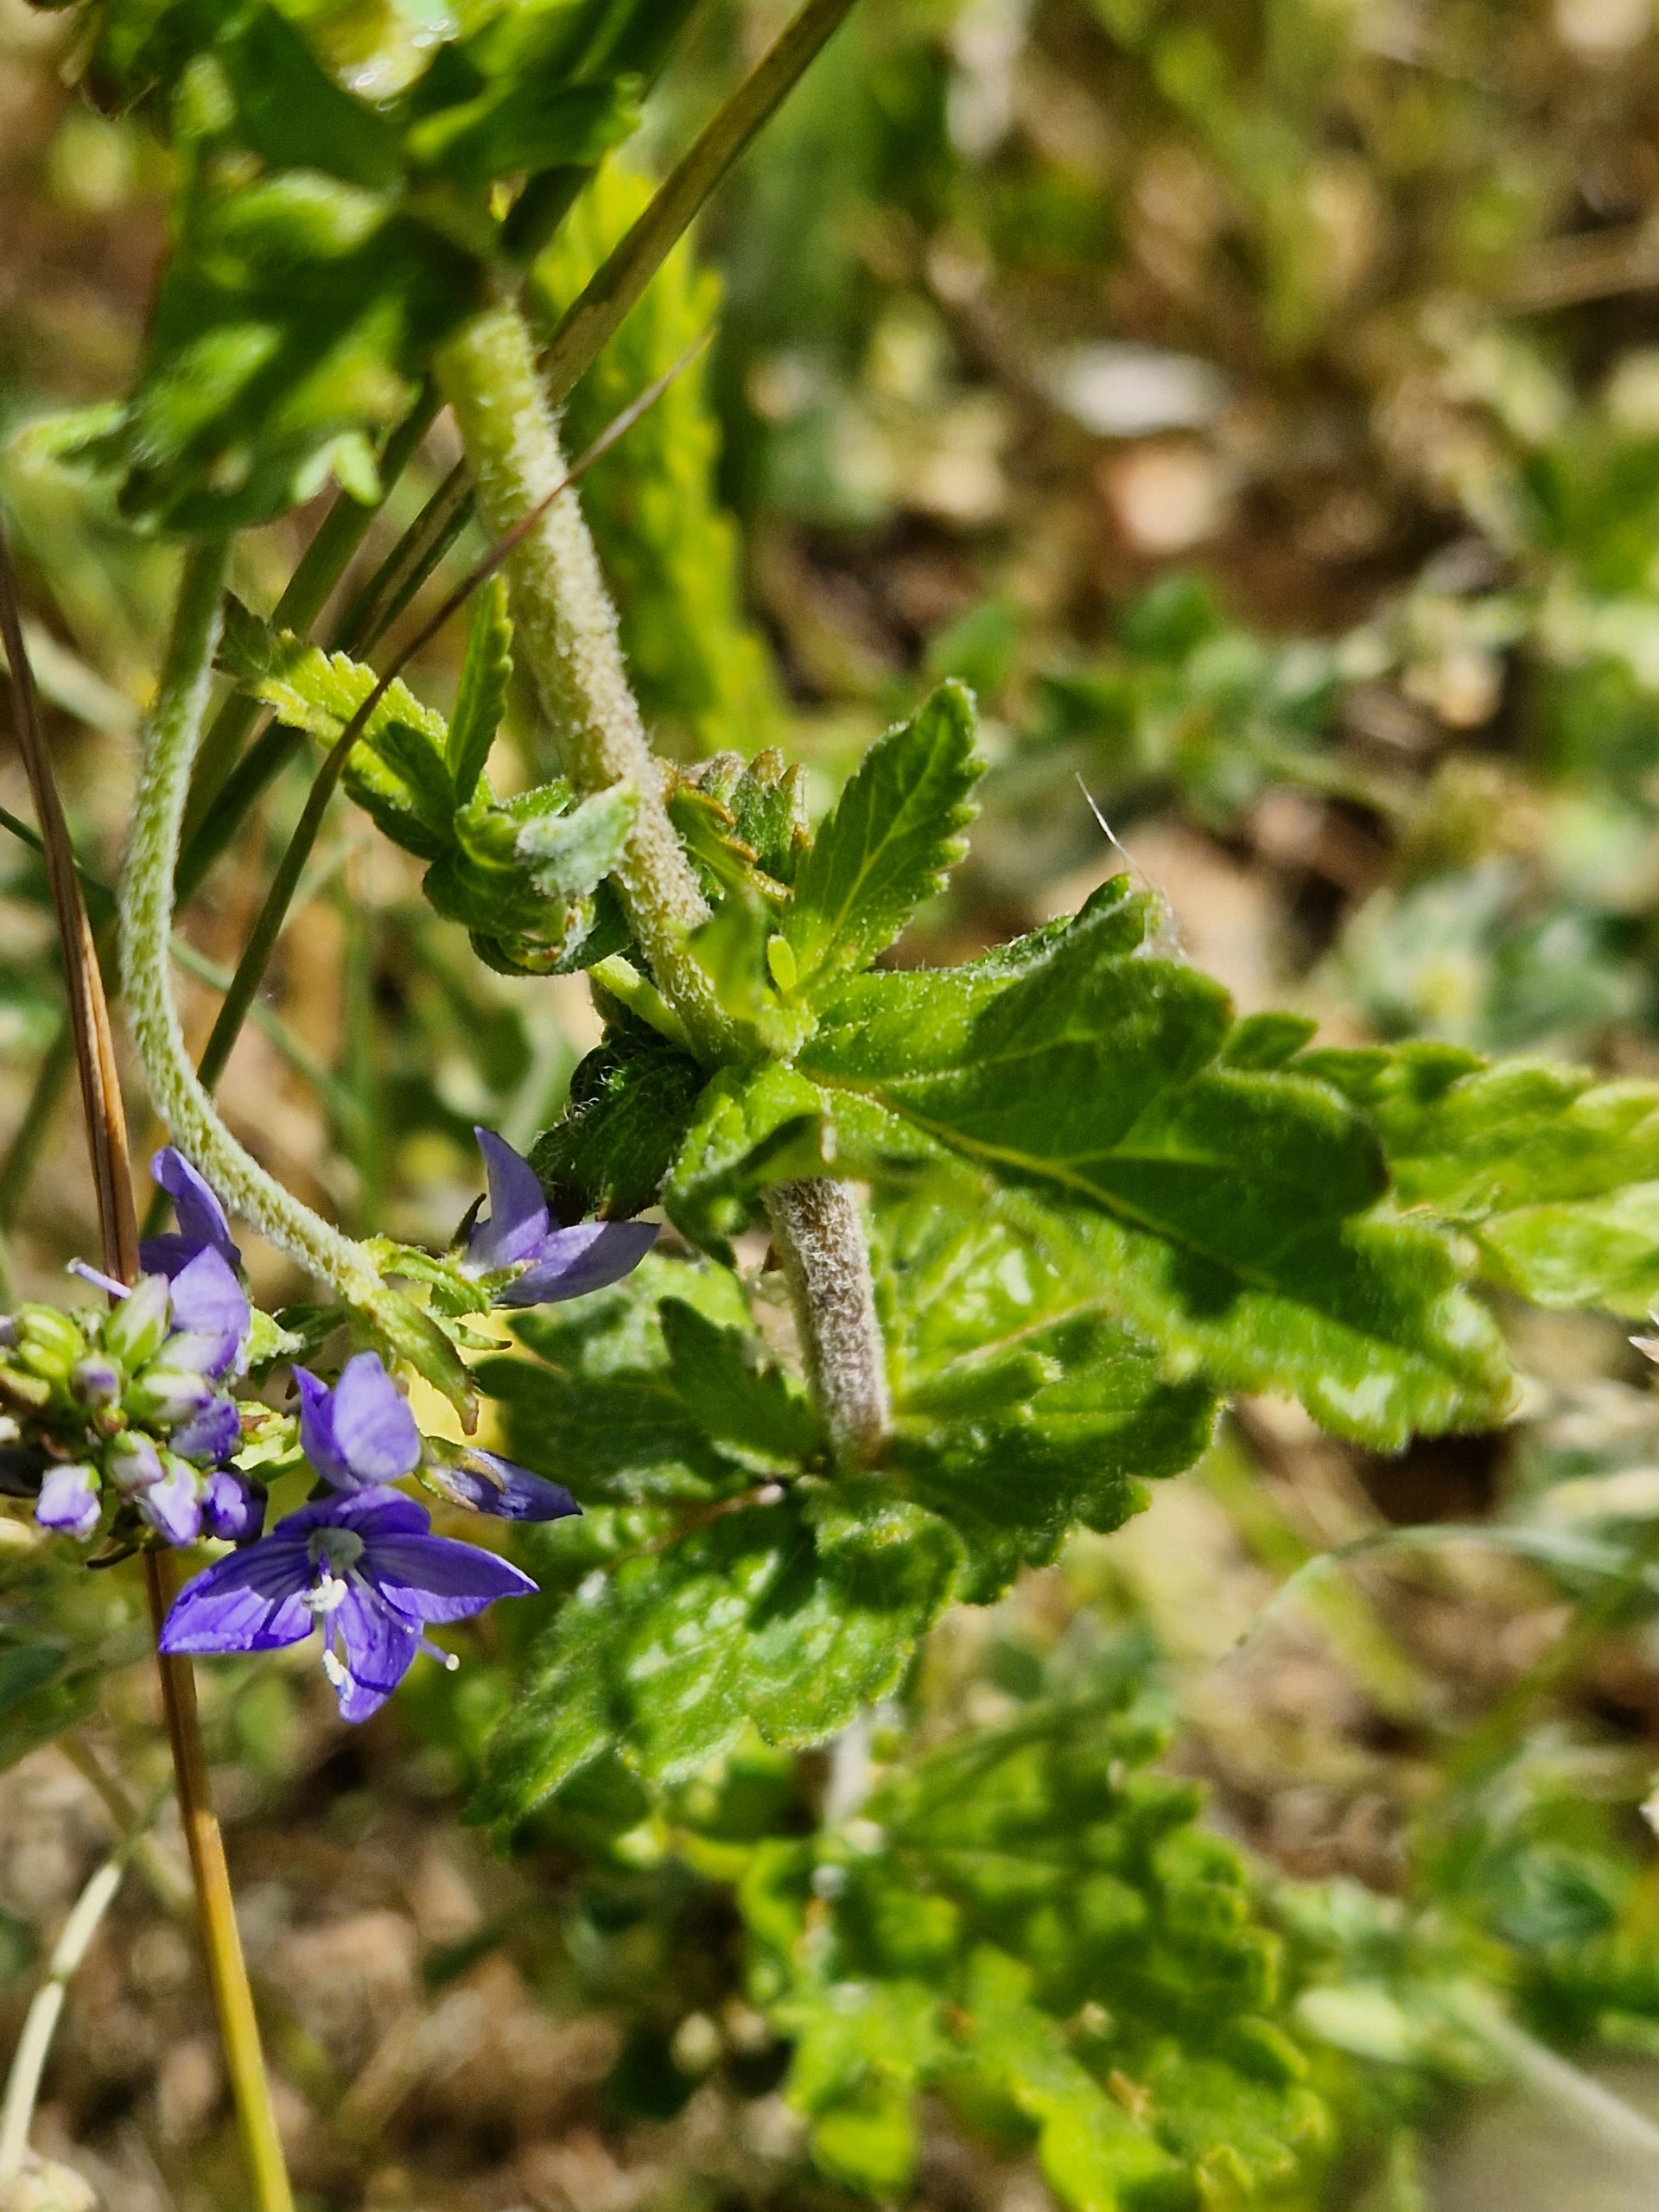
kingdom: Plantae
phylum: Tracheophyta
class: Magnoliopsida
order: Lamiales
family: Plantaginaceae
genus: Veronica
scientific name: Veronica teucrium
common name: Bredbladet ærenpris
